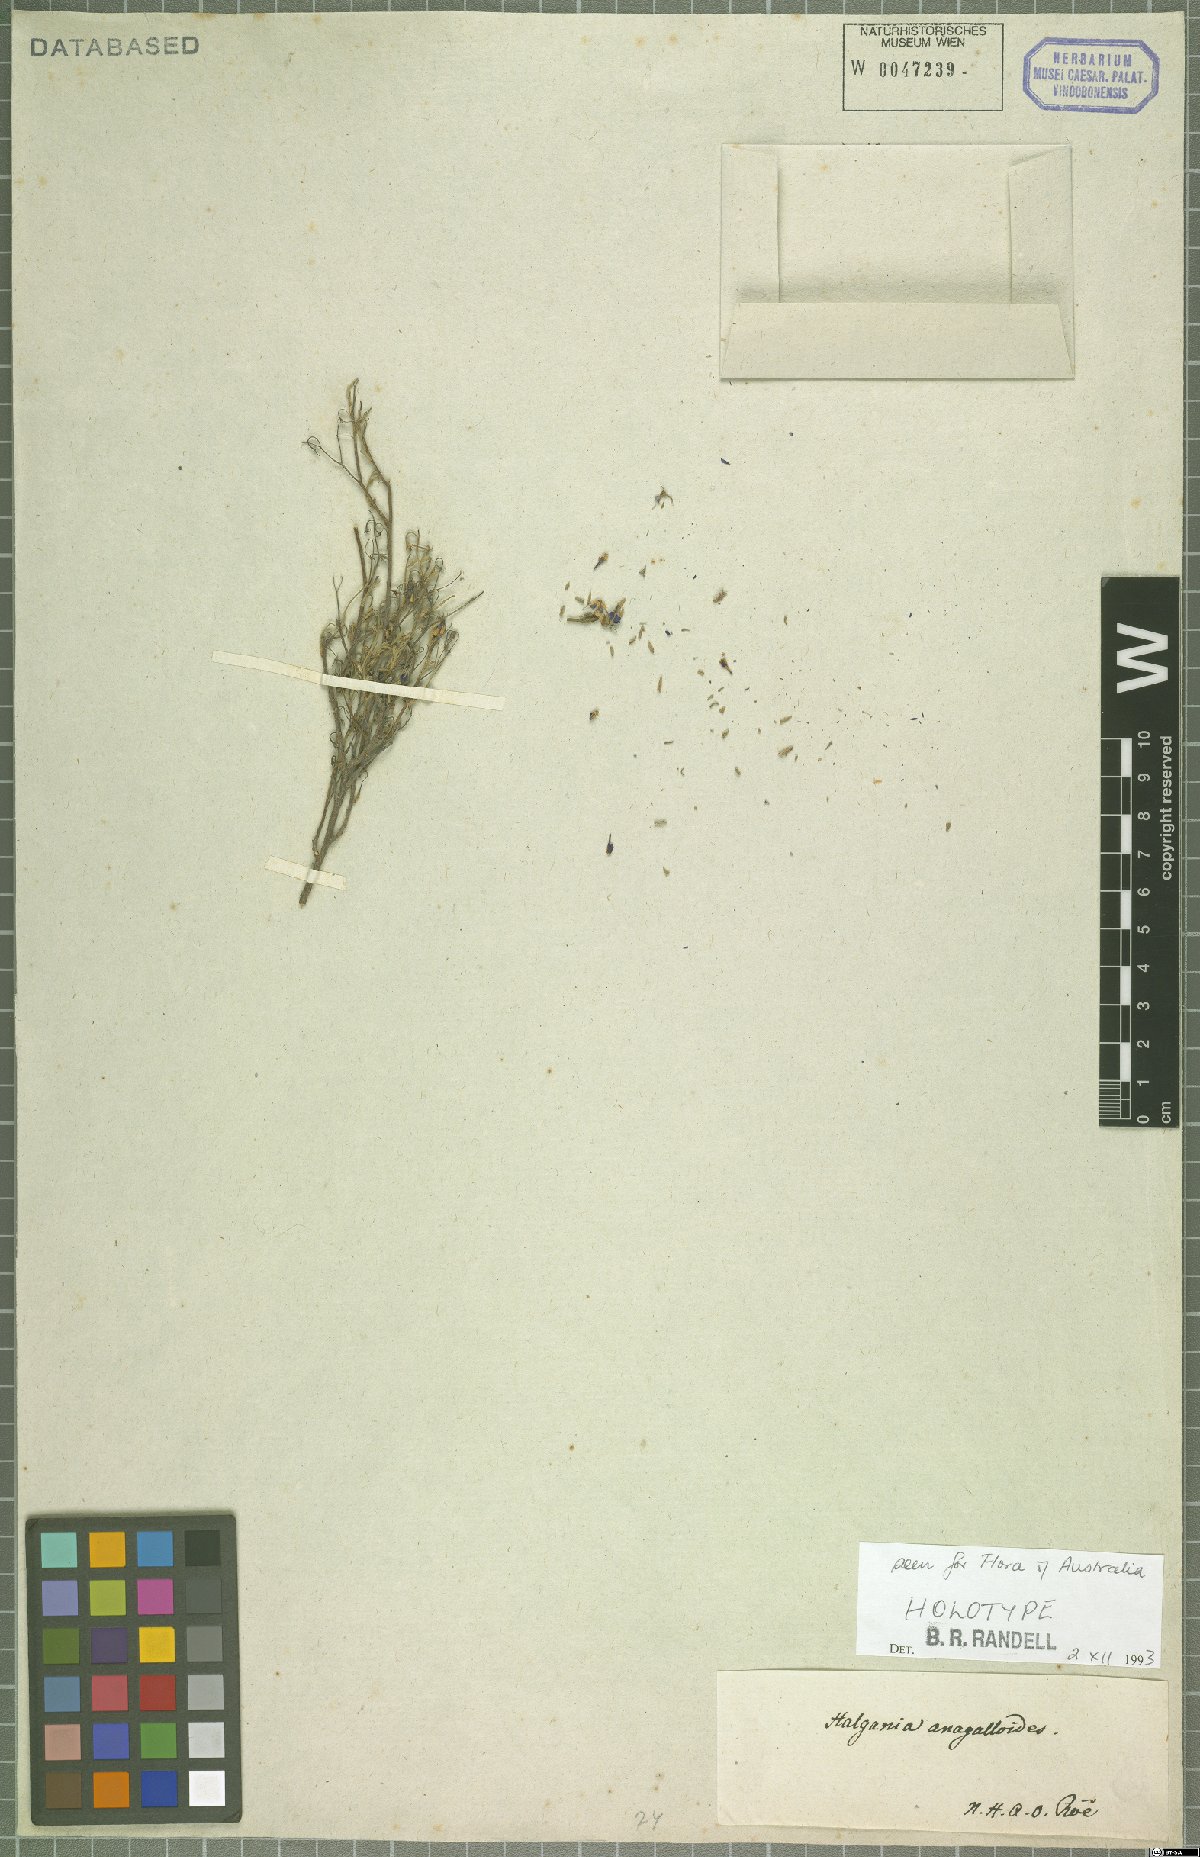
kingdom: Plantae
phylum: Tracheophyta
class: Magnoliopsida
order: Boraginales
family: Ehretiaceae
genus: Halgania
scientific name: Halgania anagalloides
